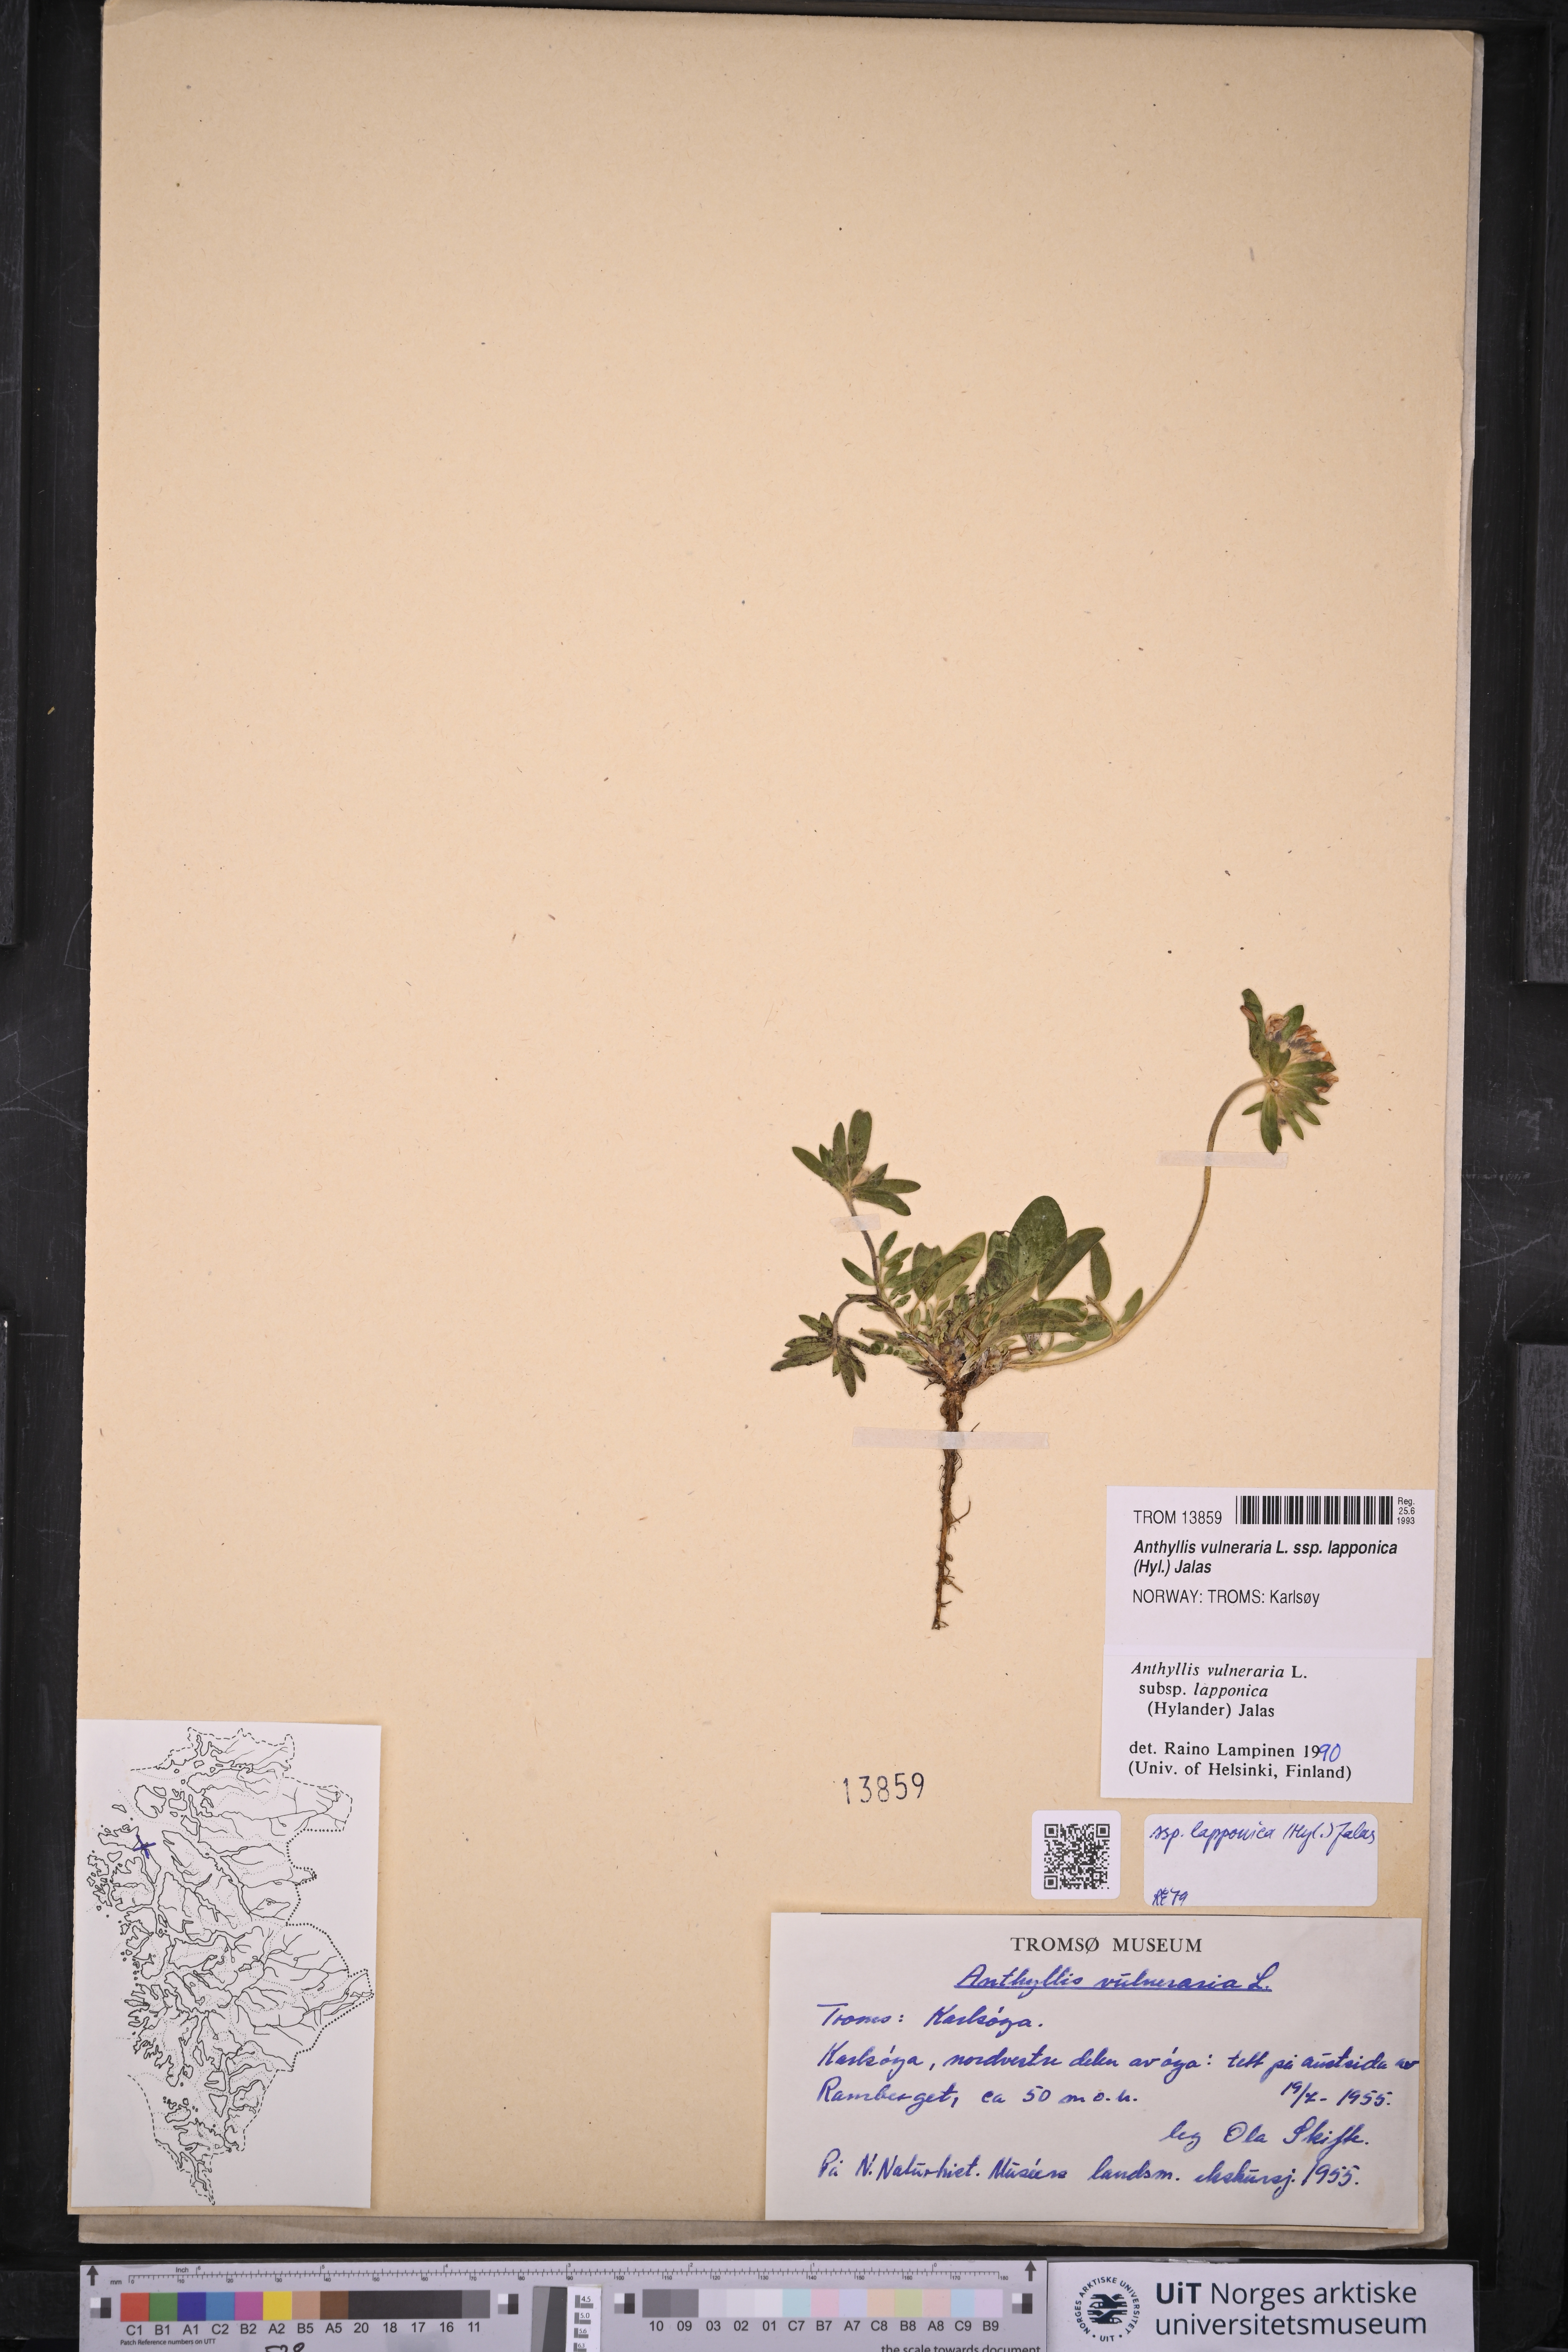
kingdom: Plantae
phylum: Tracheophyta
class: Magnoliopsida
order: Fabales
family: Fabaceae
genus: Anthyllis
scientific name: Anthyllis vulneraria
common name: Kidney vetch
